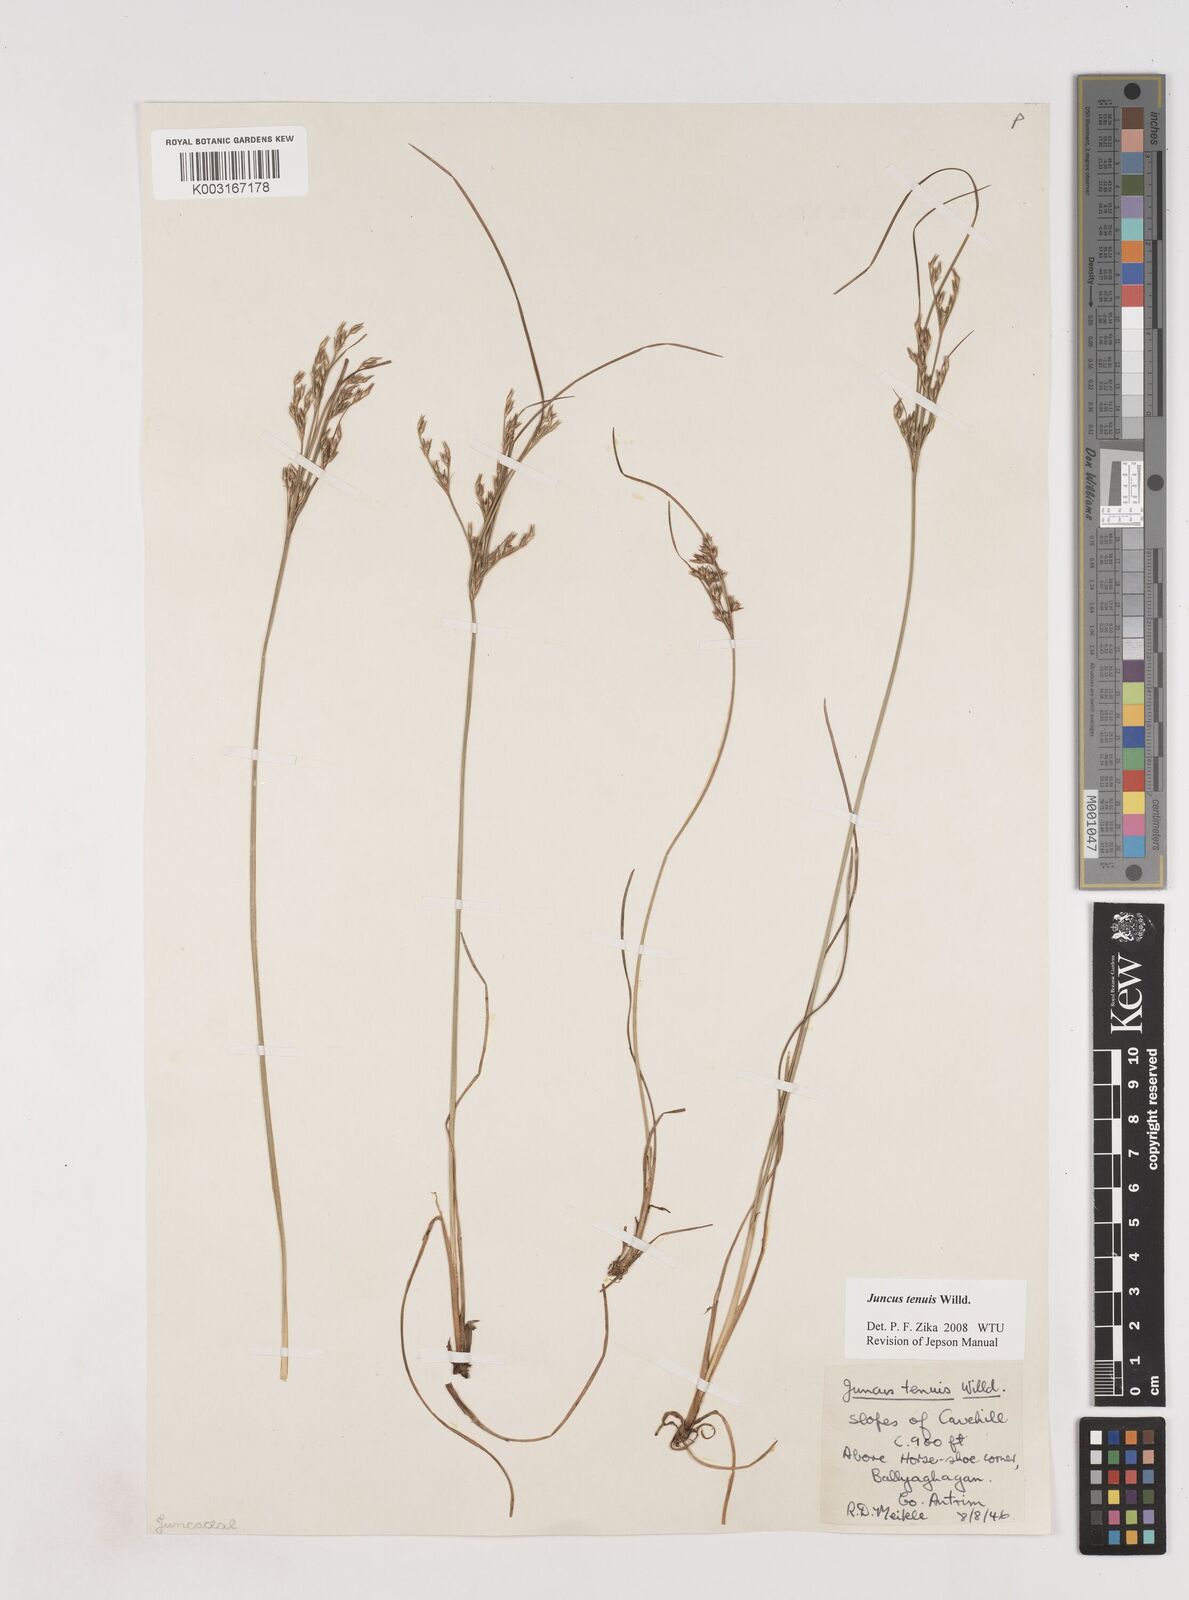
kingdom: Plantae
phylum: Tracheophyta
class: Liliopsida
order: Poales
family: Juncaceae
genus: Juncus
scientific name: Juncus tenuis
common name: Slender rush
